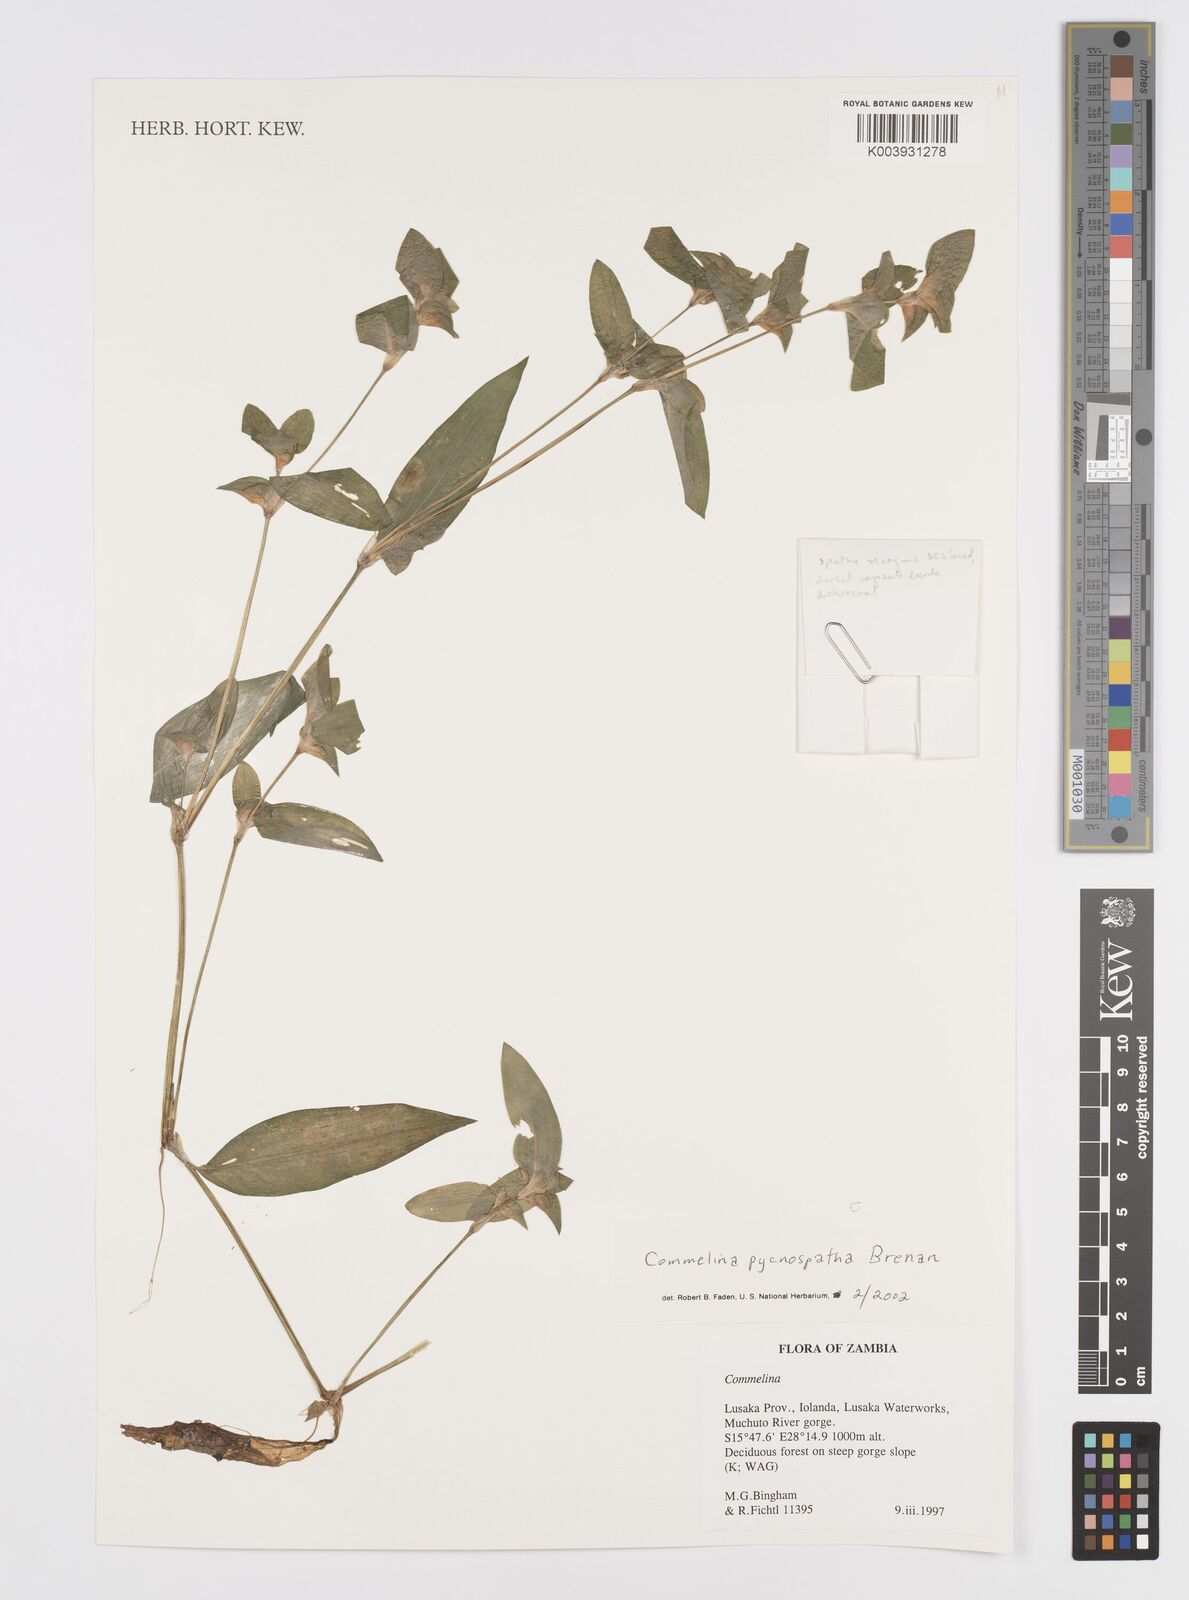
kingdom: Plantae
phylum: Tracheophyta
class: Liliopsida
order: Commelinales
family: Commelinaceae
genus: Commelina
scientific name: Commelina pycnospatha
